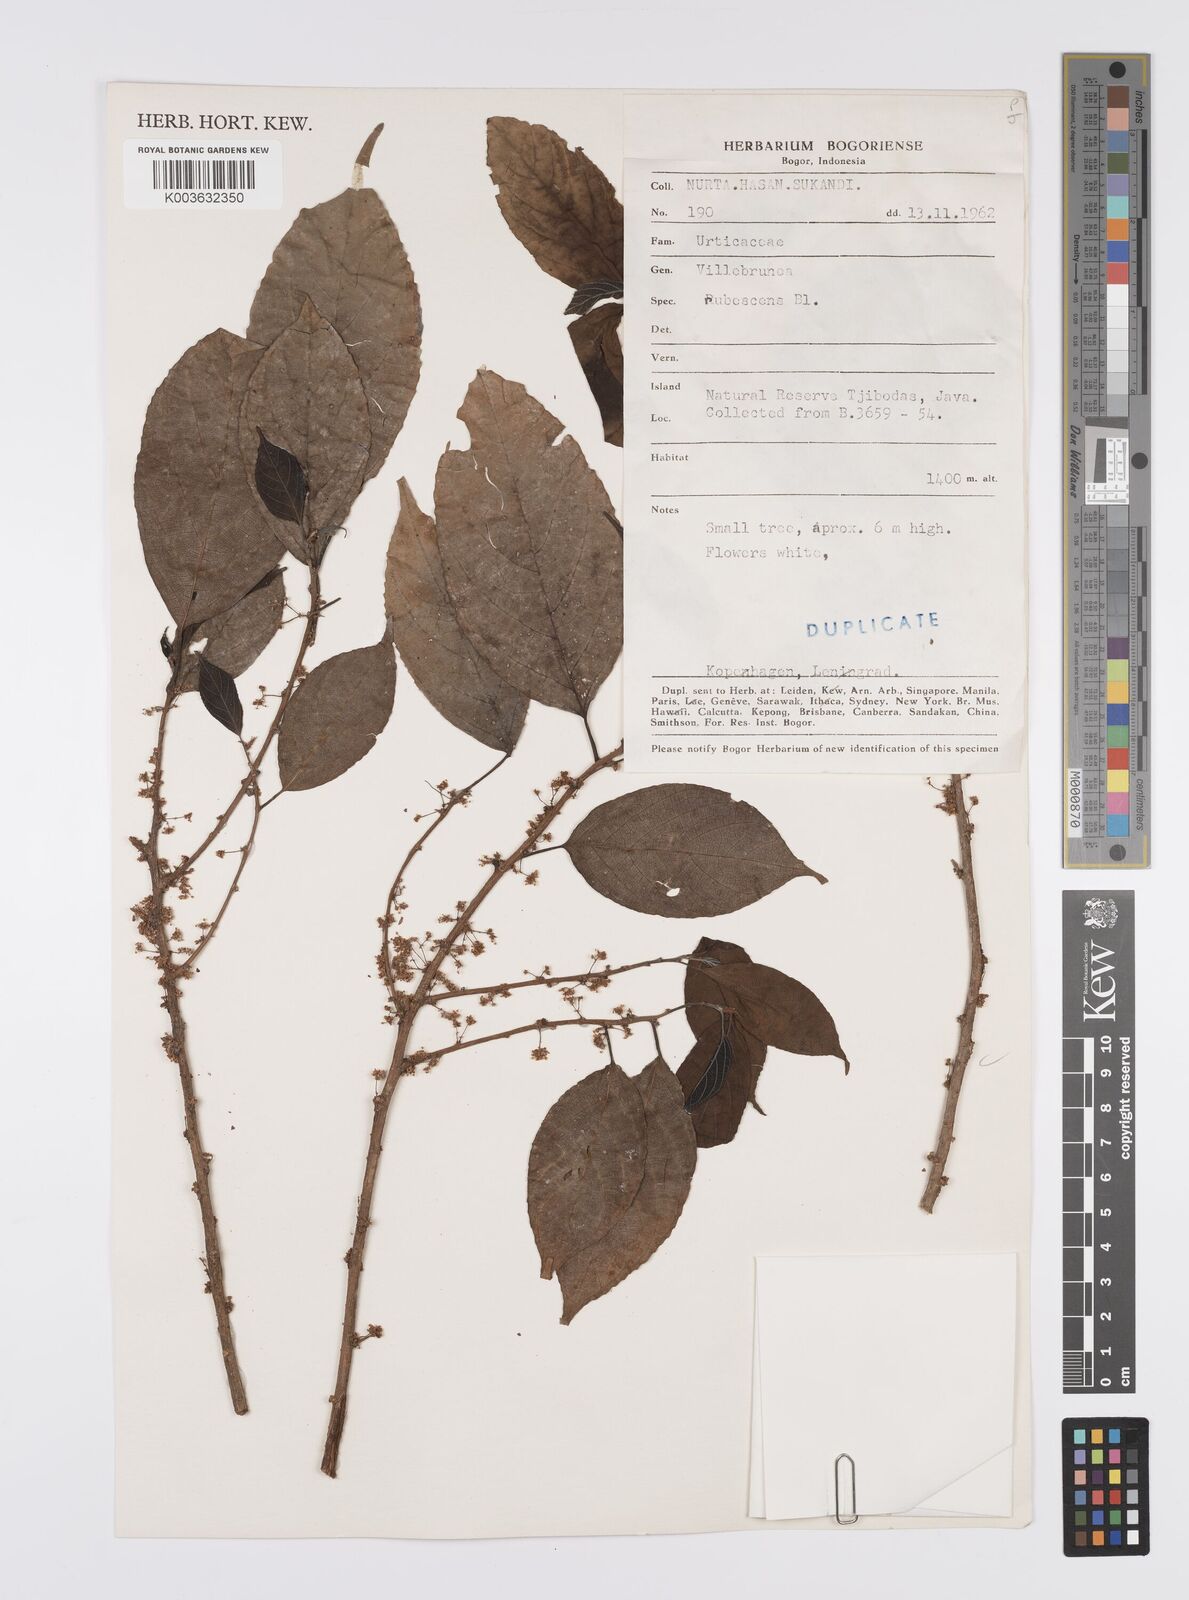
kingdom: Plantae
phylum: Tracheophyta
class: Magnoliopsida
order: Rosales
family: Urticaceae
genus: Oreocnide
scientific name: Oreocnide rubescens
